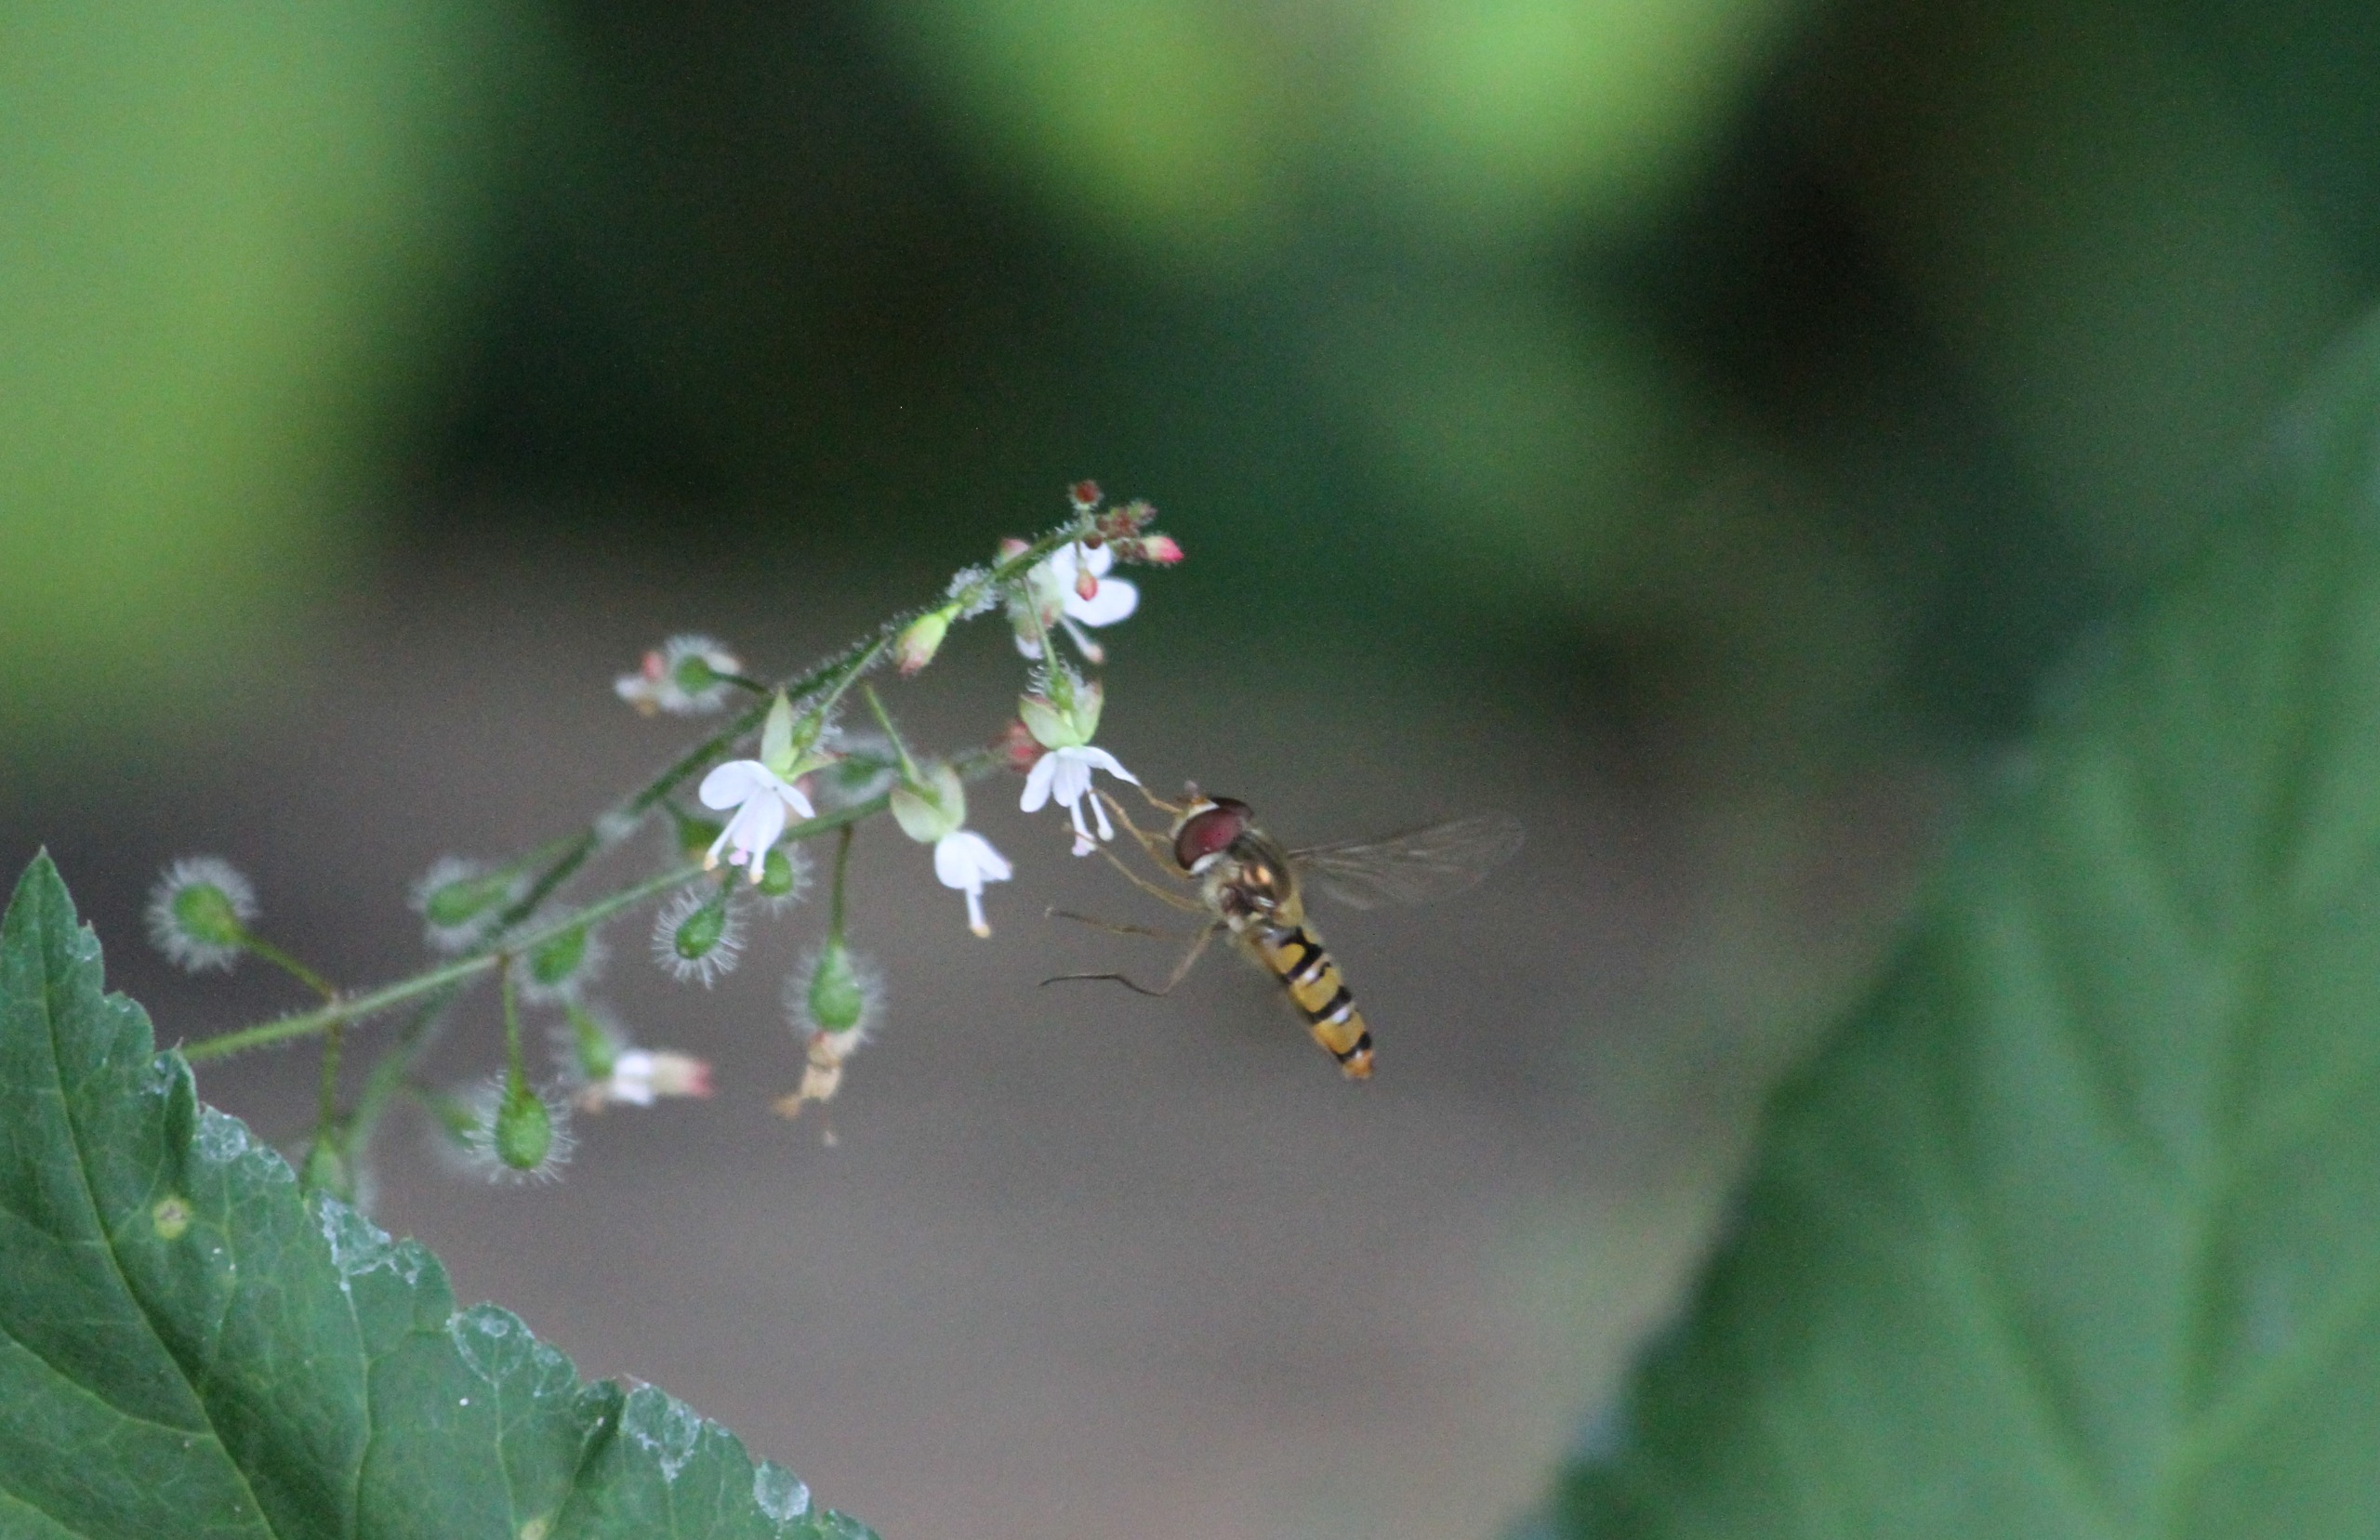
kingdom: Animalia
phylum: Arthropoda
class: Insecta
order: Diptera
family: Syrphidae
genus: Episyrphus
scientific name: Episyrphus balteatus
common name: Dobbeltbåndet svirreflue
